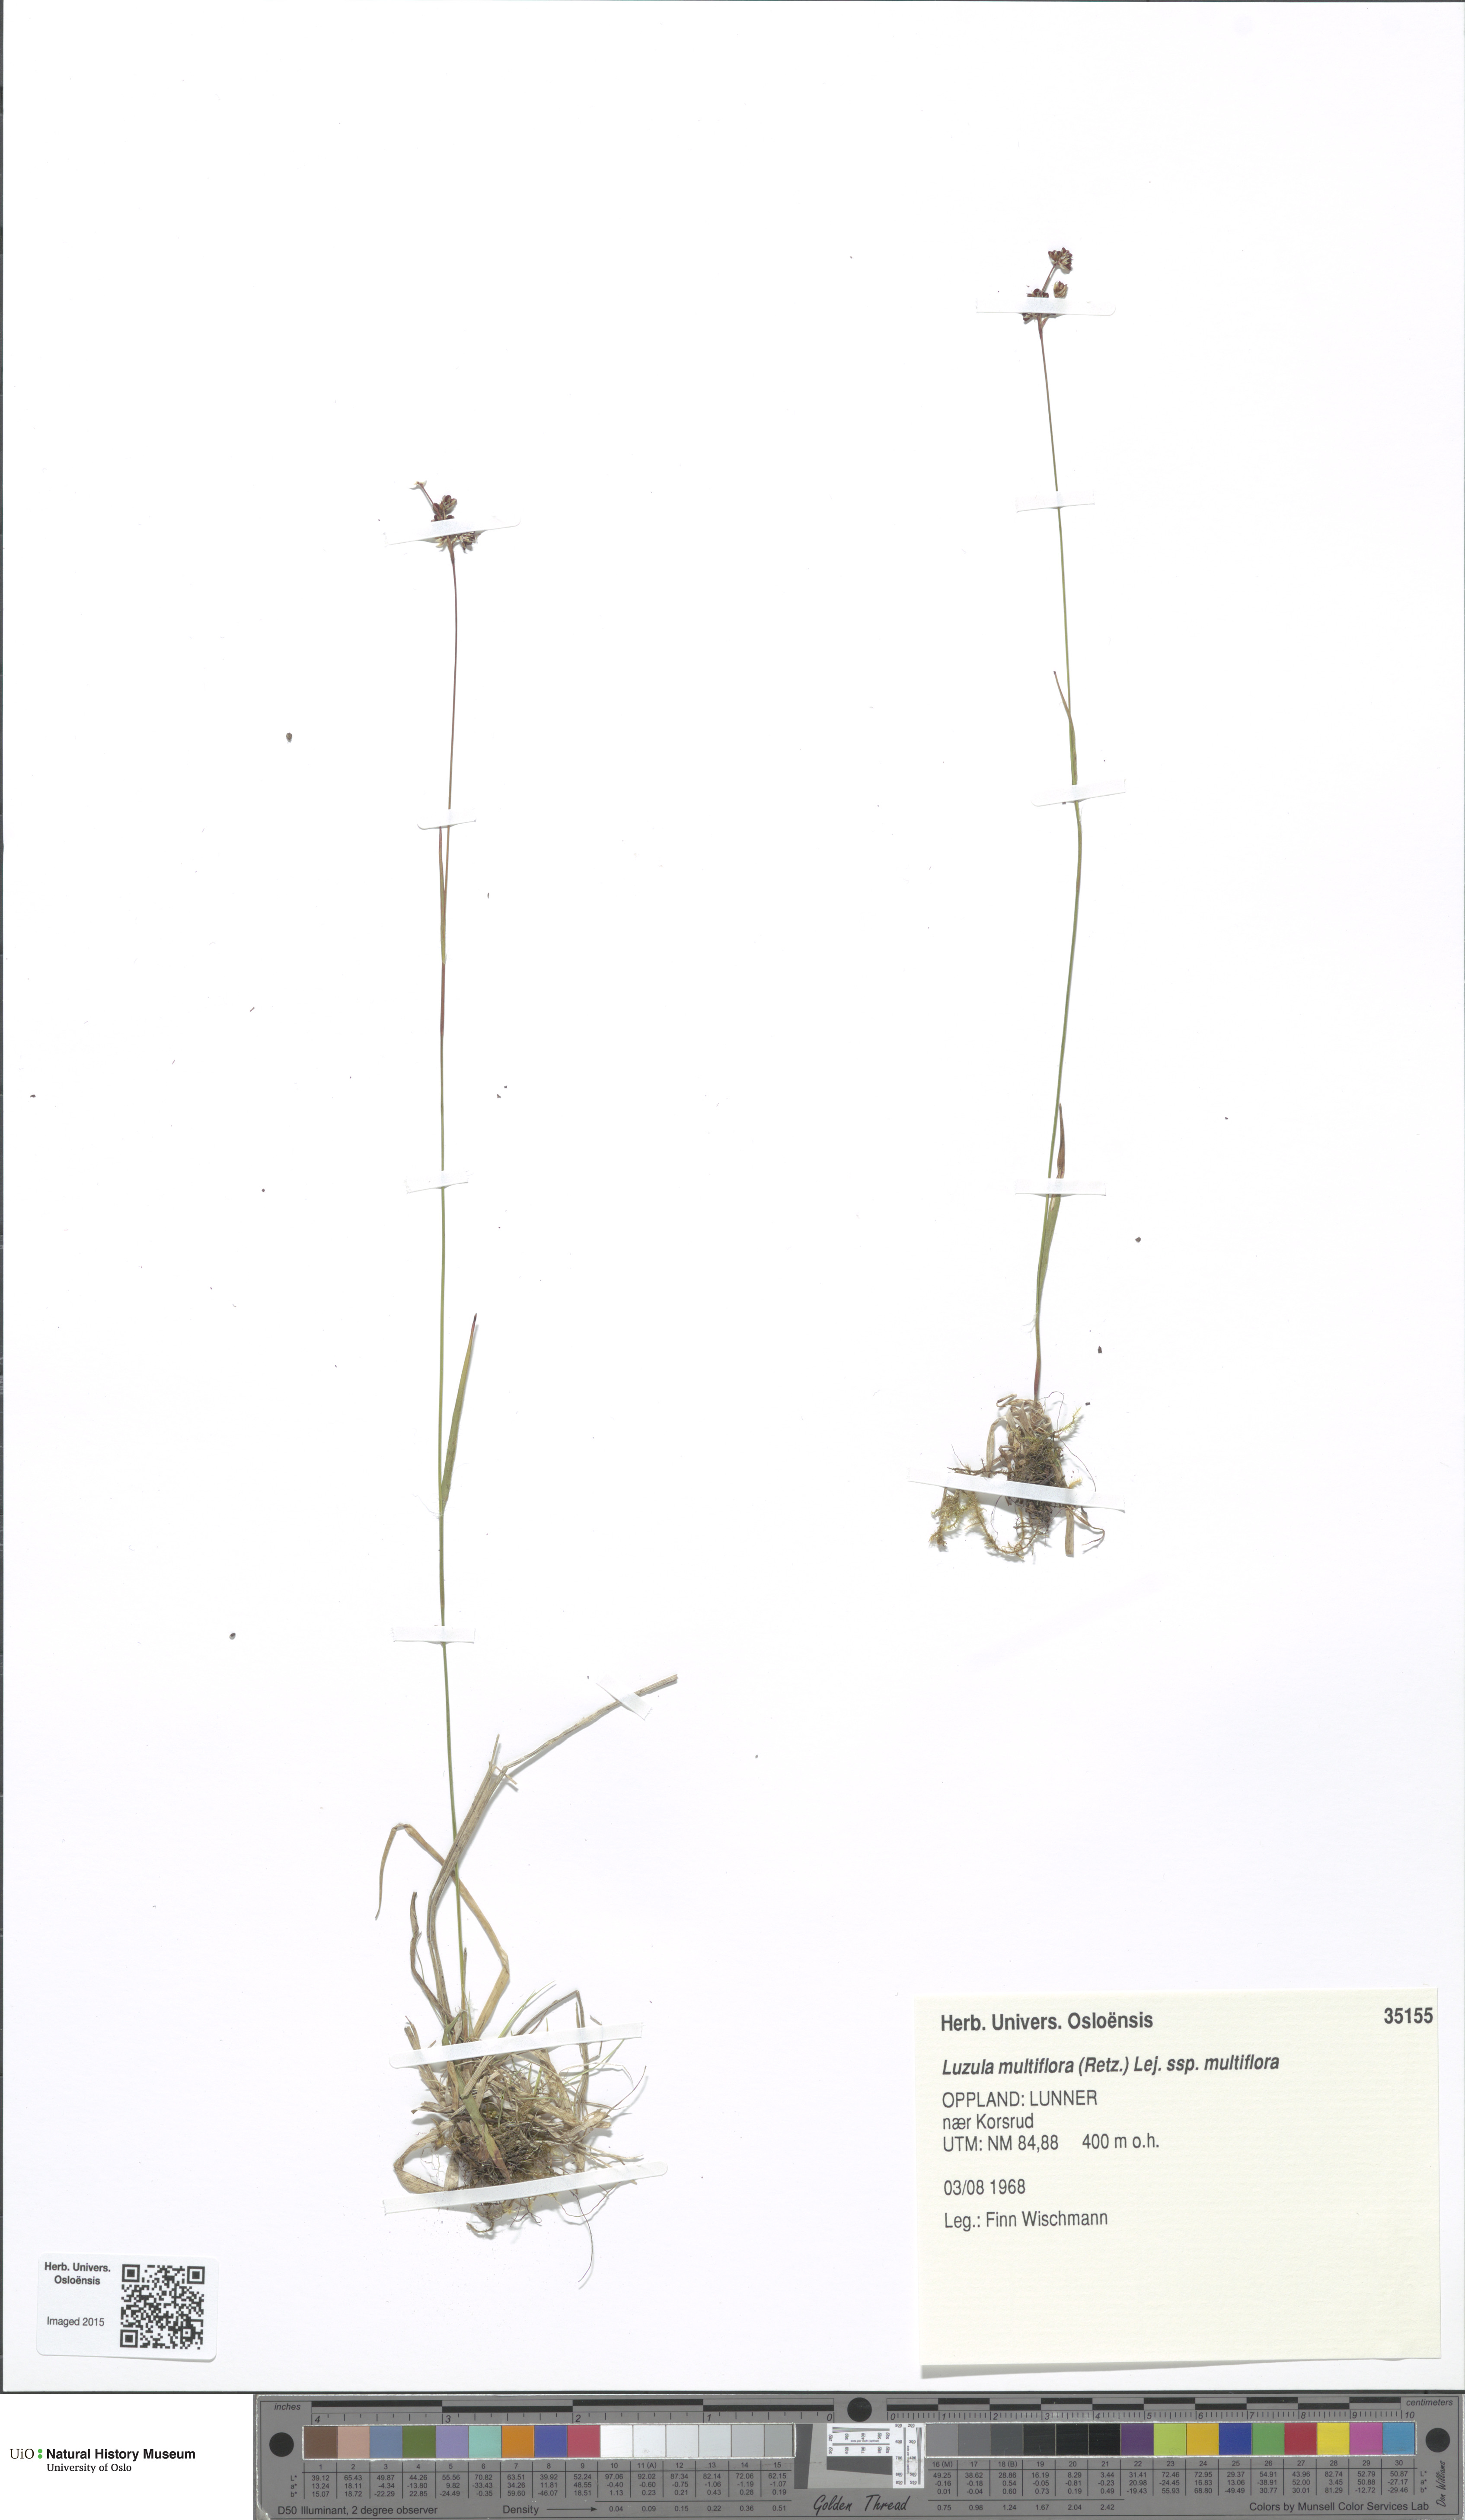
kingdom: Plantae
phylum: Tracheophyta
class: Liliopsida
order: Poales
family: Juncaceae
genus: Luzula
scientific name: Luzula multiflora
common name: Heath wood-rush
